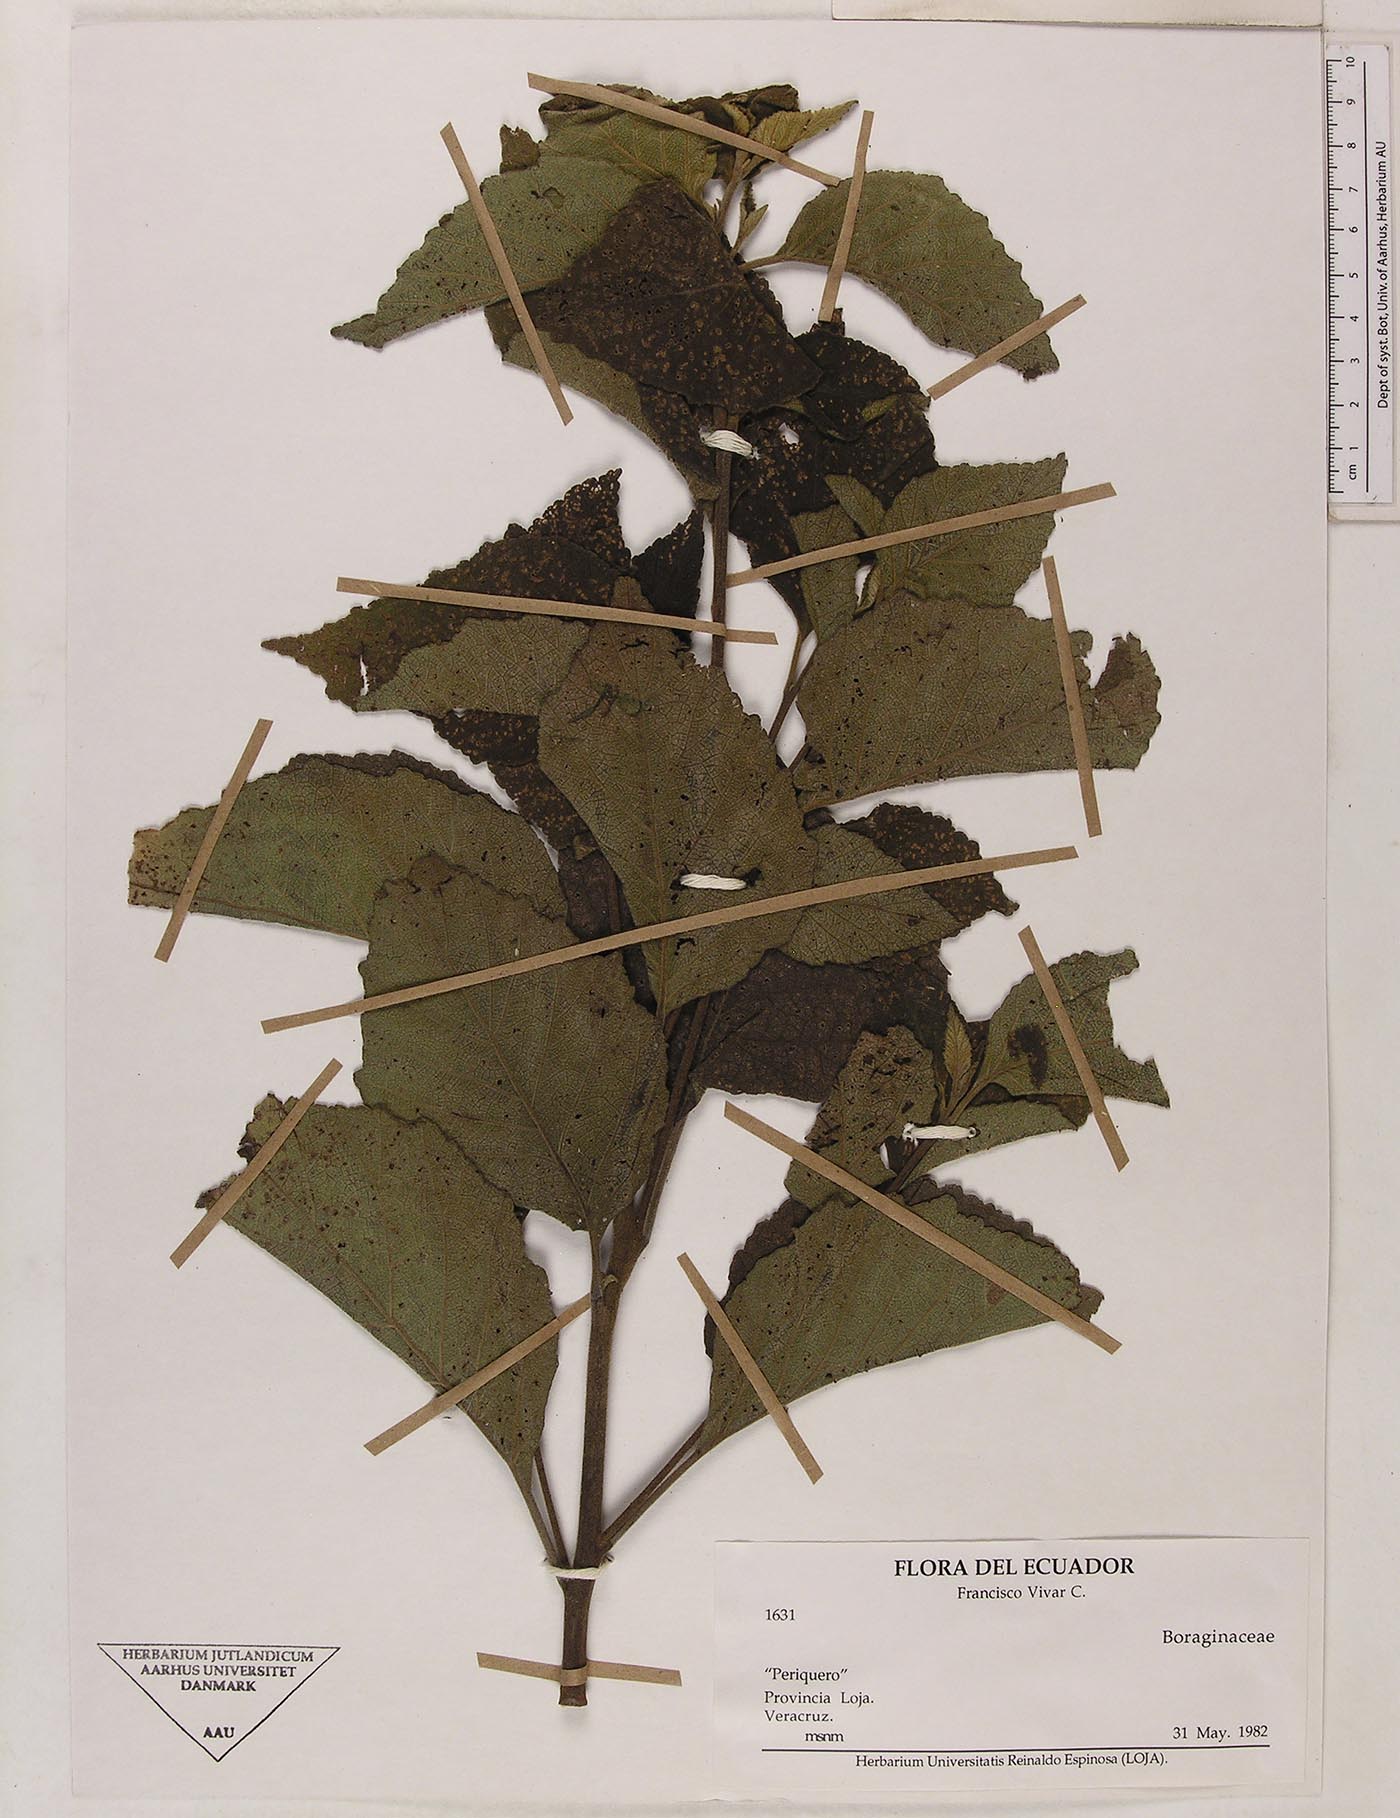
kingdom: Plantae
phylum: Tracheophyta
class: Magnoliopsida
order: Boraginales
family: Cordiaceae
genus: Varronia
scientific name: Varronia
